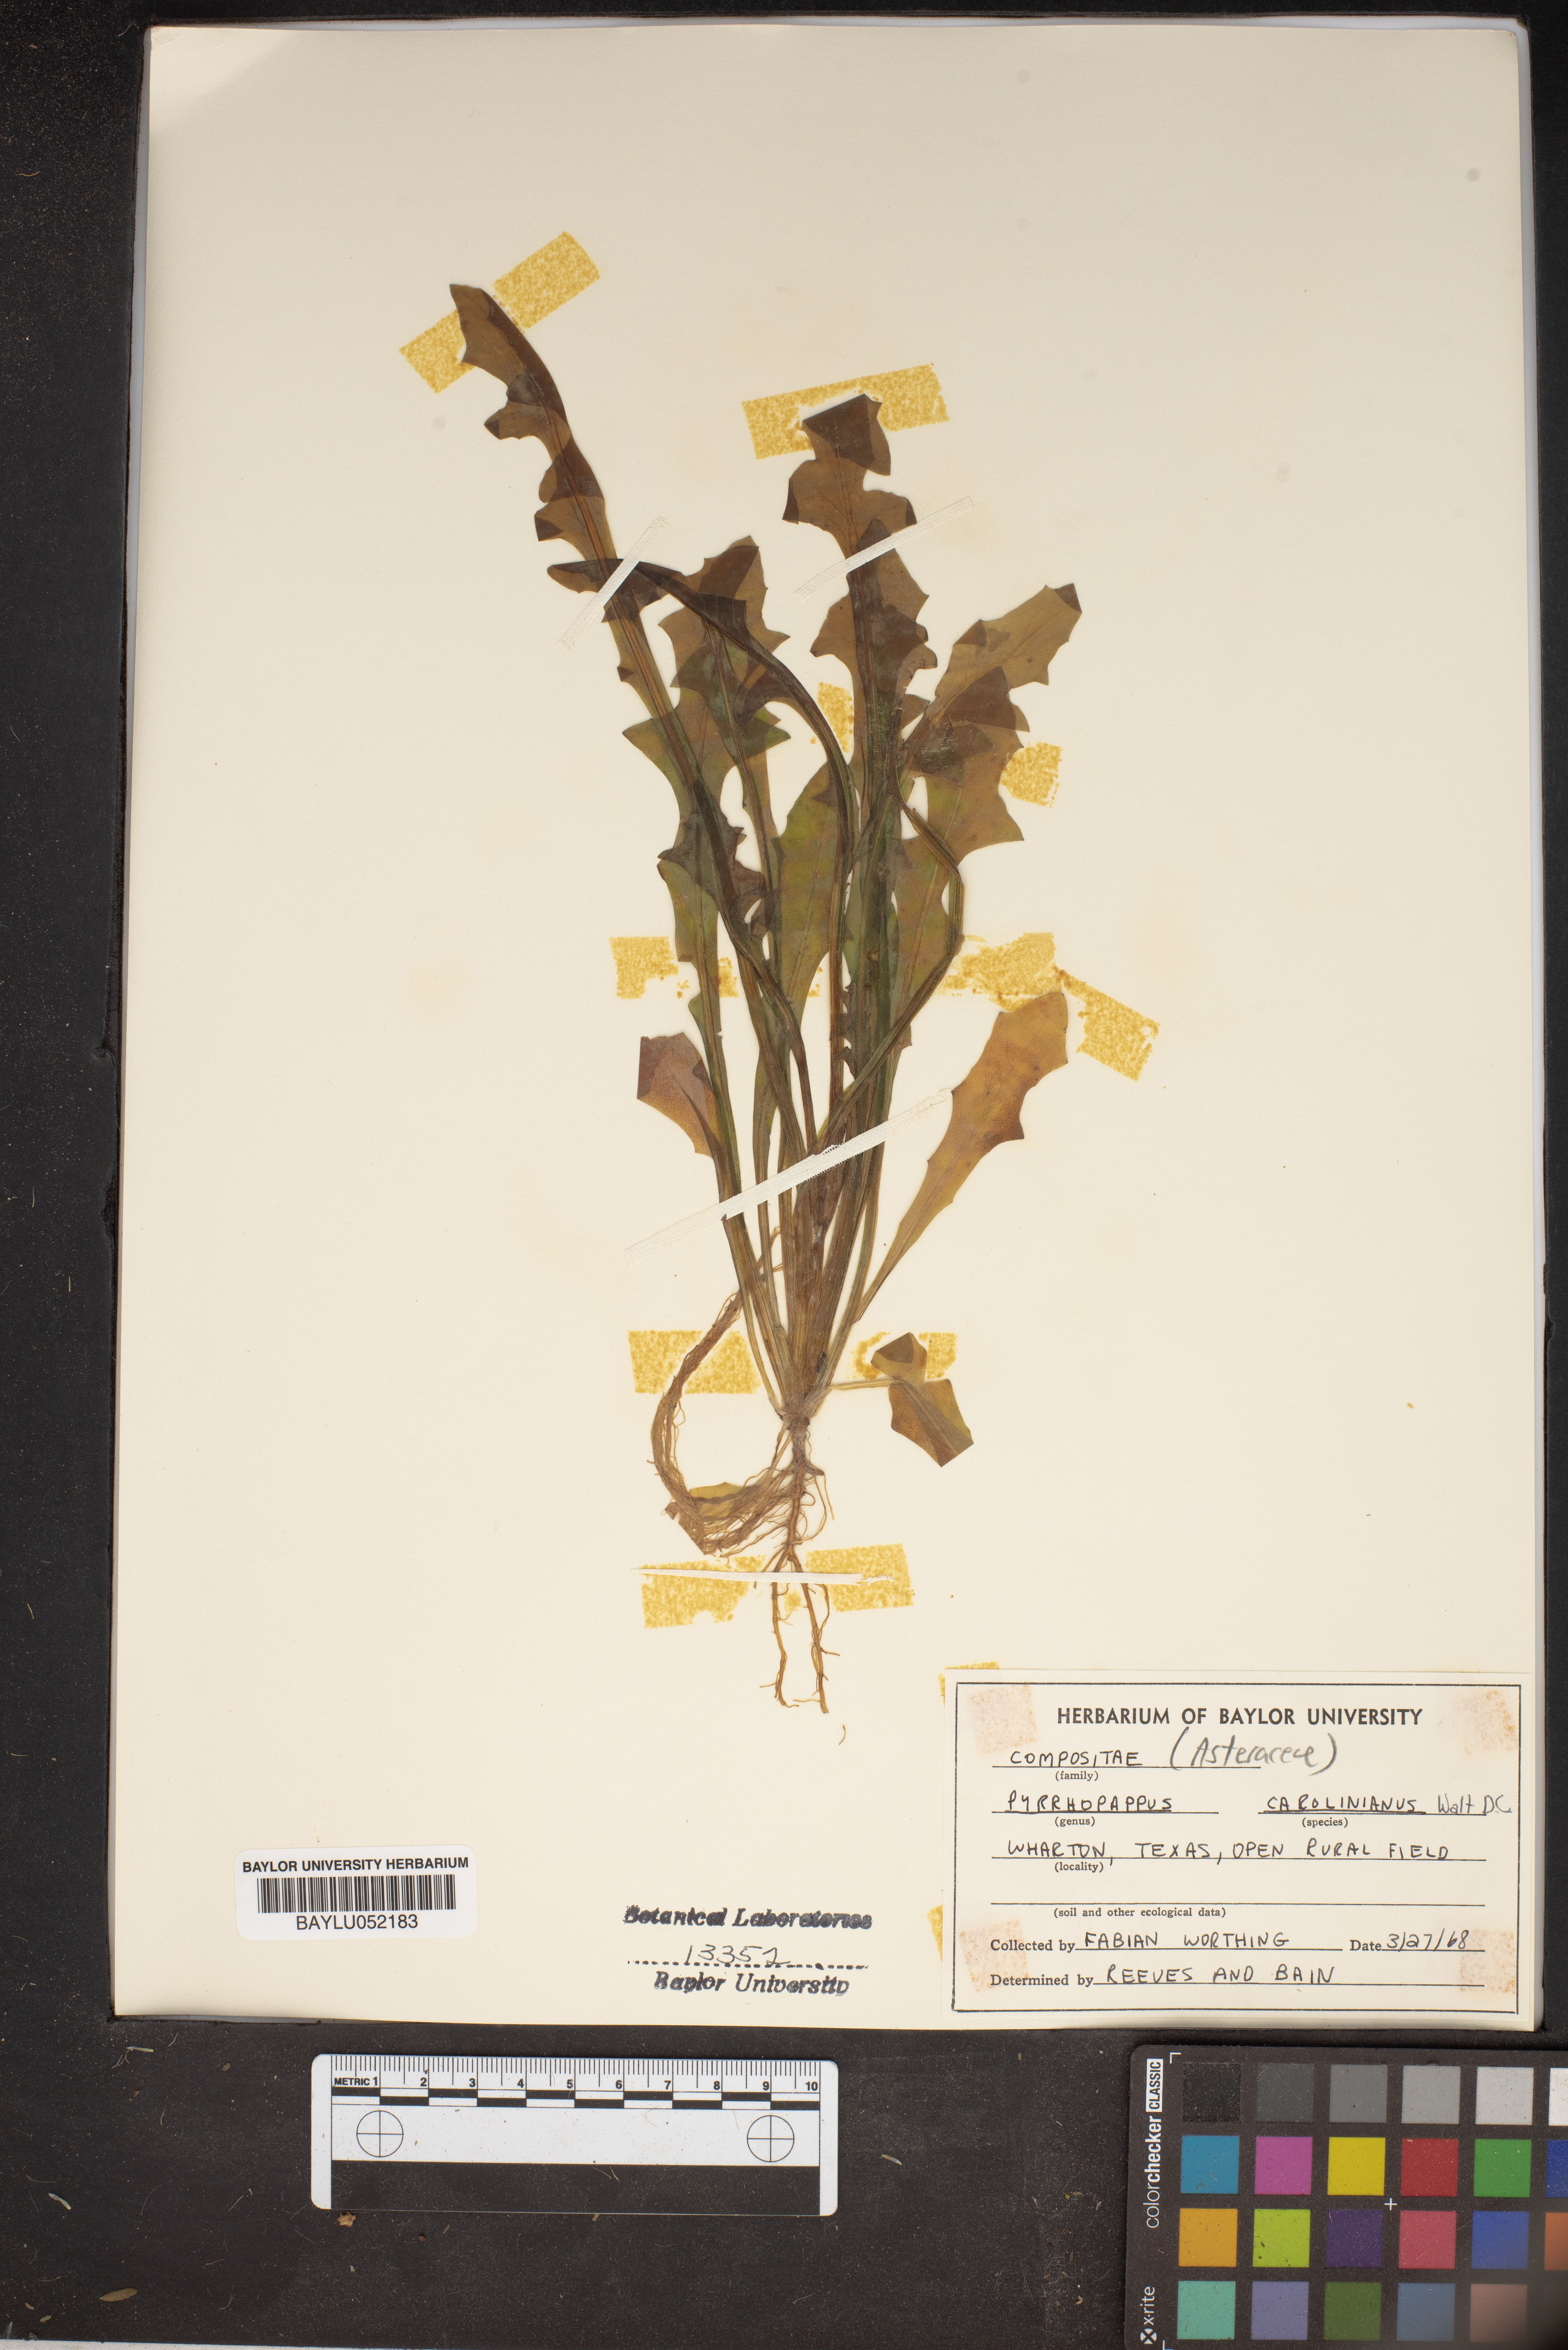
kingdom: Plantae
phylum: Tracheophyta
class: Magnoliopsida
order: Asterales
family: Asteraceae
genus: Pyrrhopappus
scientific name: Pyrrhopappus carolinianus
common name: Carolina desert-chicory
